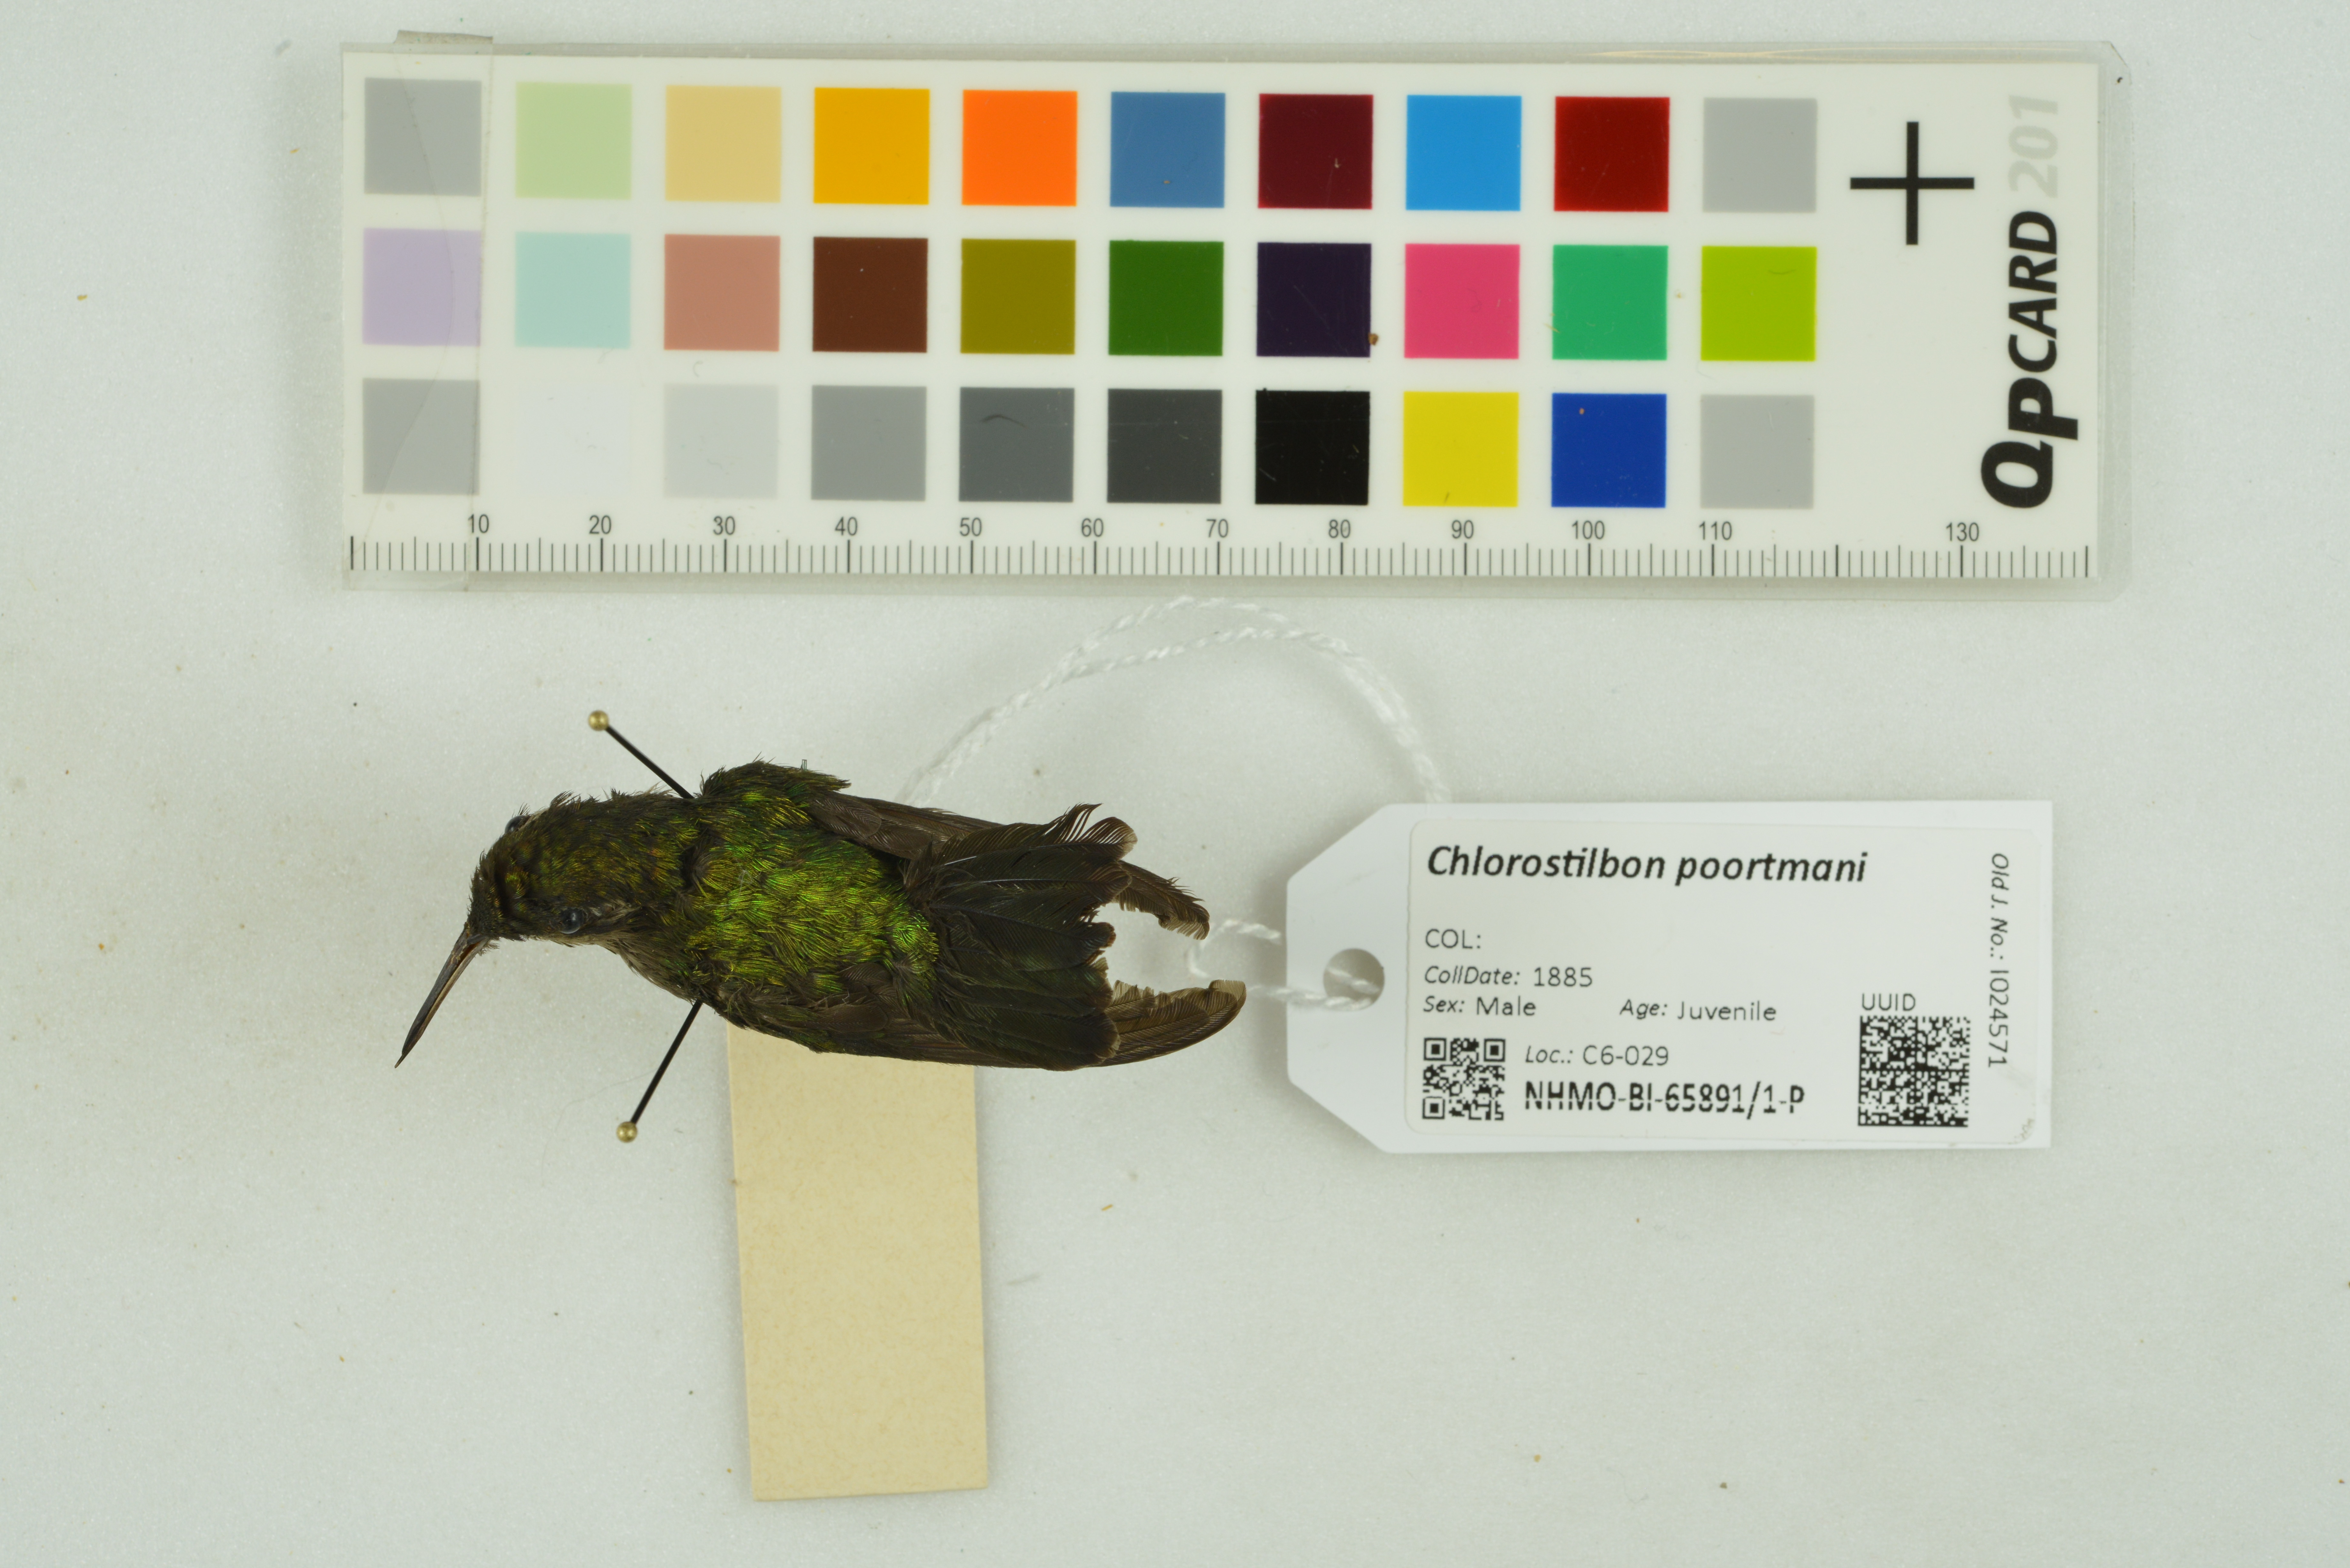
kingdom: Animalia
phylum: Chordata
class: Aves
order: Apodiformes
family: Trochilidae
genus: Chlorostilbon
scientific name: Chlorostilbon poortmani
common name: Short-tailed emerald
